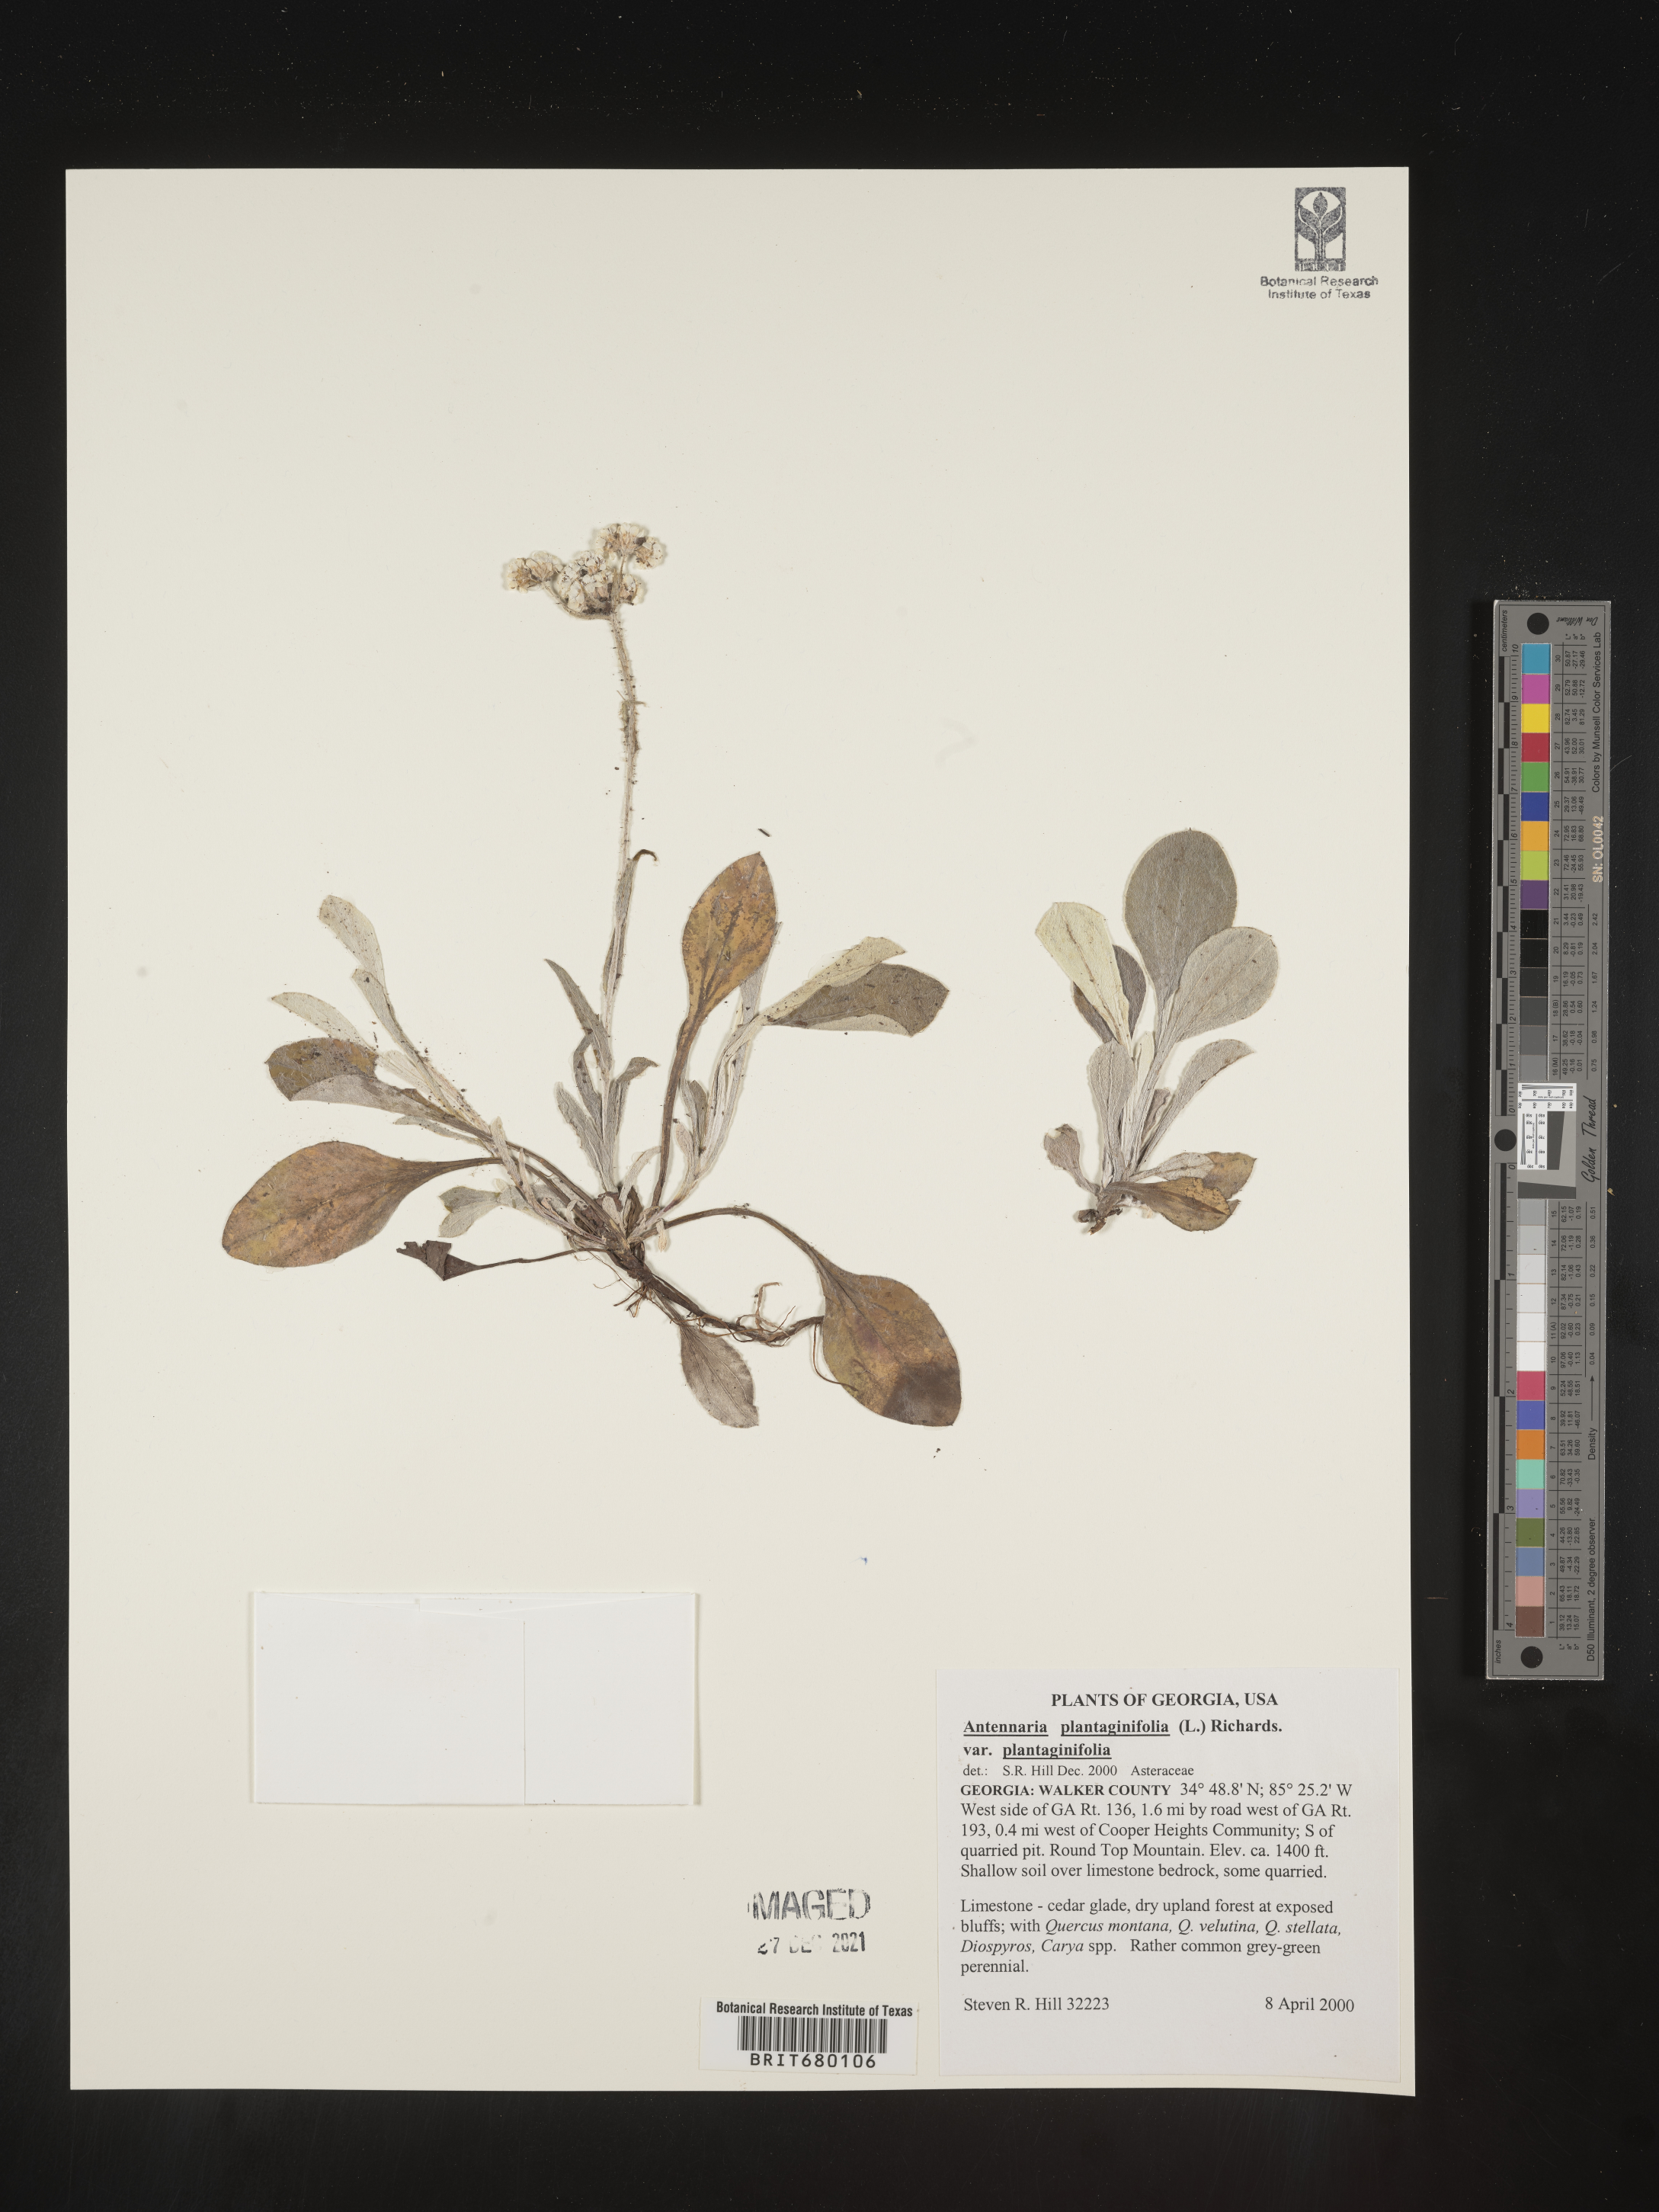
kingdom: Plantae
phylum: Tracheophyta
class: Magnoliopsida
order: Asterales
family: Asteraceae
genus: Antennaria
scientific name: Antennaria plantaginifolia
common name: Plantain-leaved pussytoes
